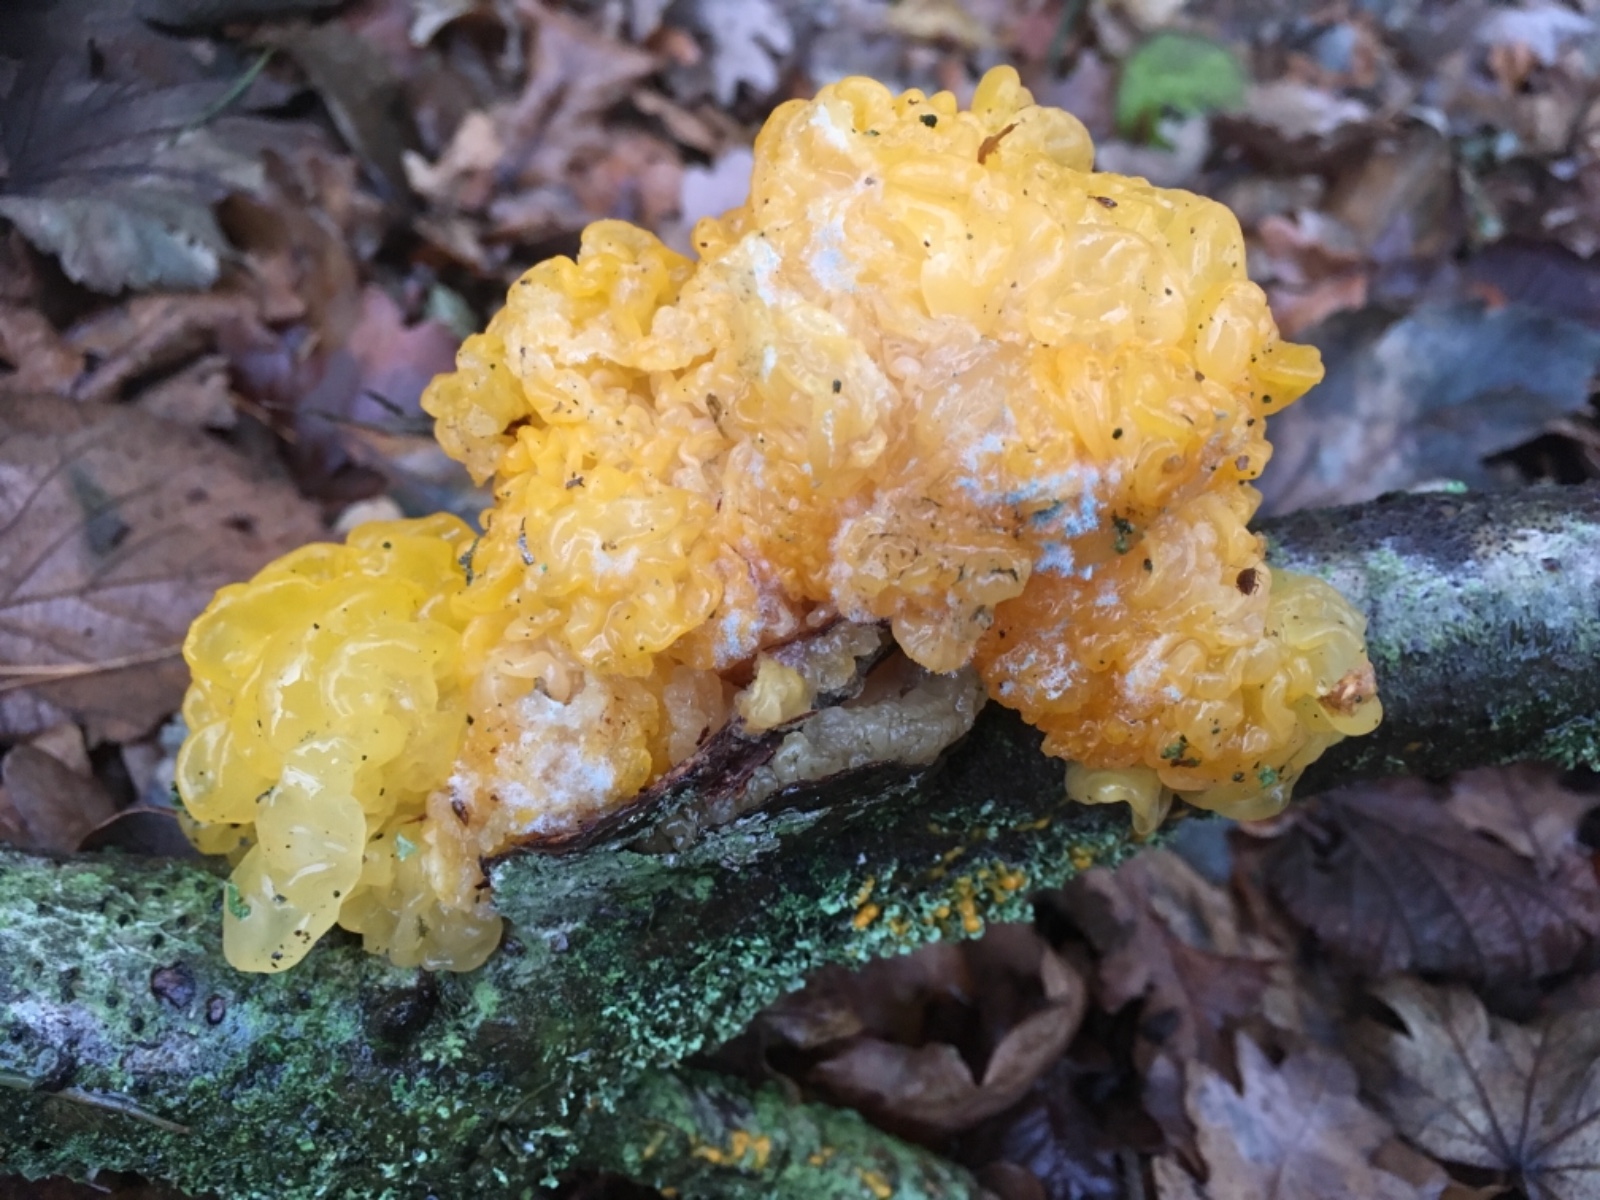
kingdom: Fungi
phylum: Basidiomycota
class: Tremellomycetes
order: Tremellales
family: Tremellaceae
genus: Tremella
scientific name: Tremella mesenterica
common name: gul bævresvamp
